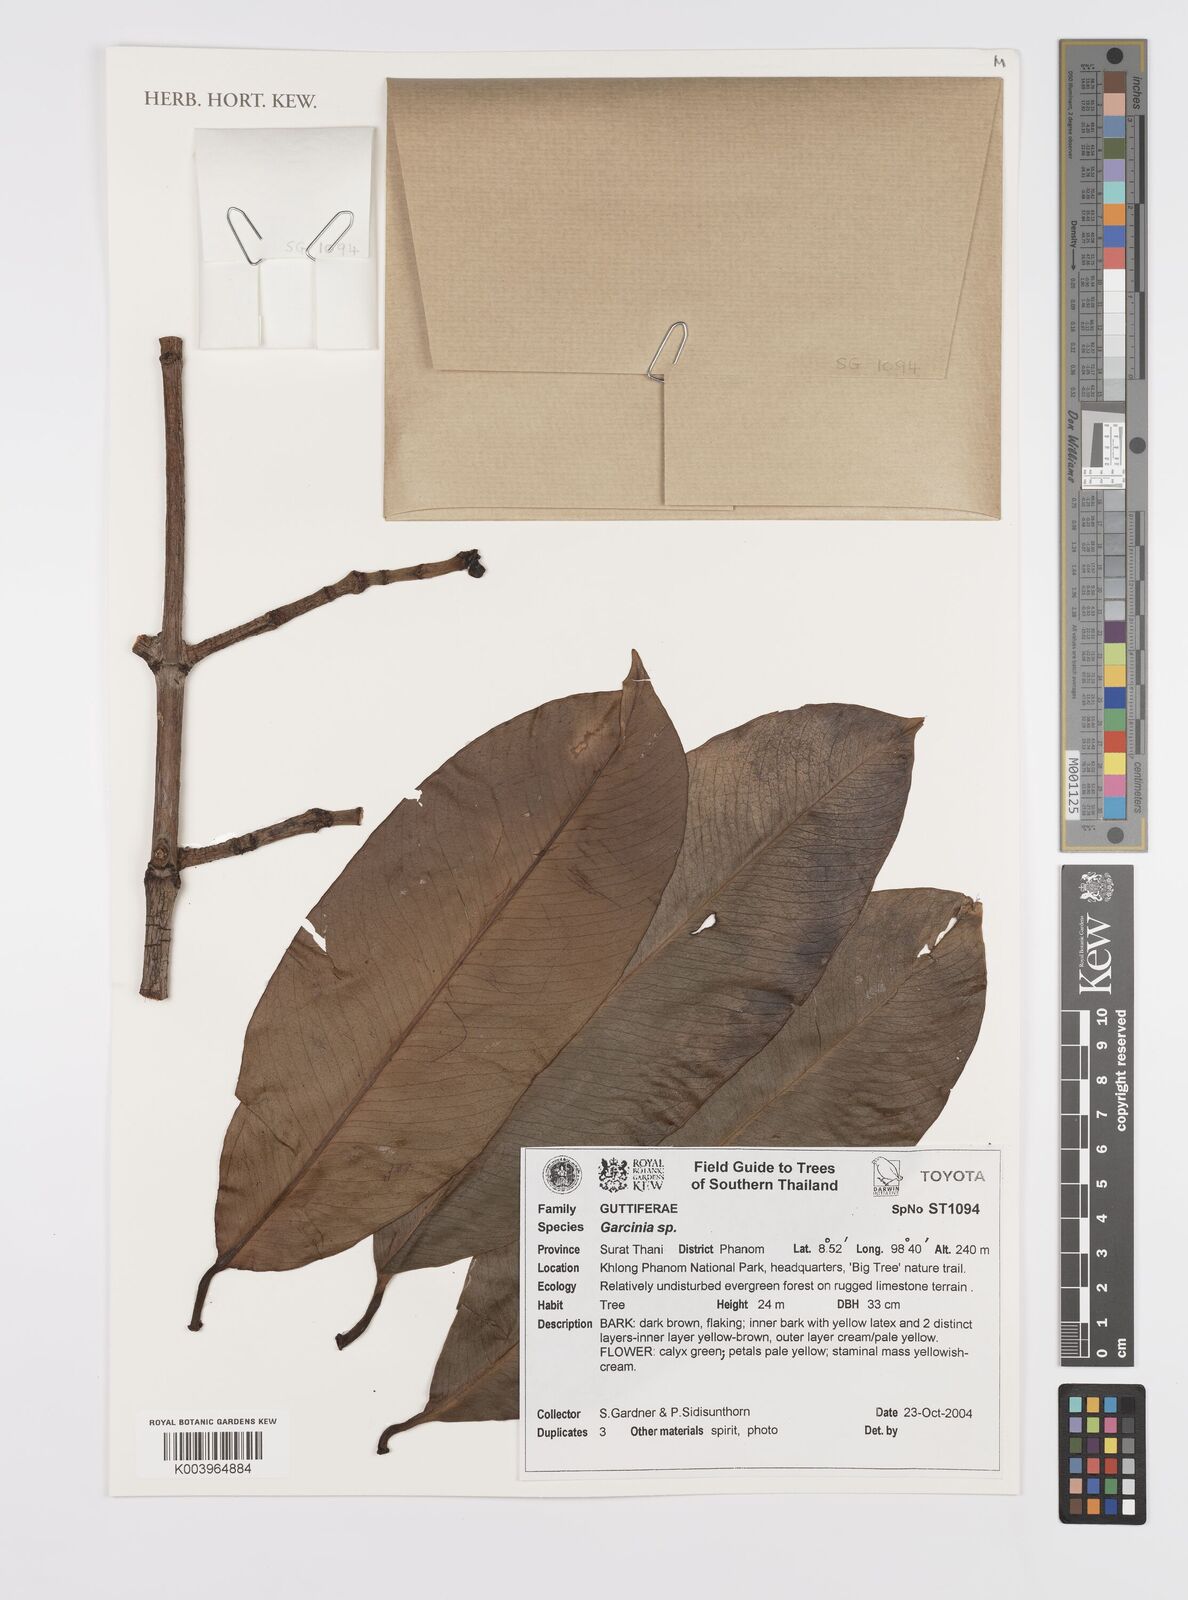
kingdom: Plantae
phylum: Tracheophyta
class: Magnoliopsida
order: Malpighiales
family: Clusiaceae
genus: Garcinia
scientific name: Garcinia
